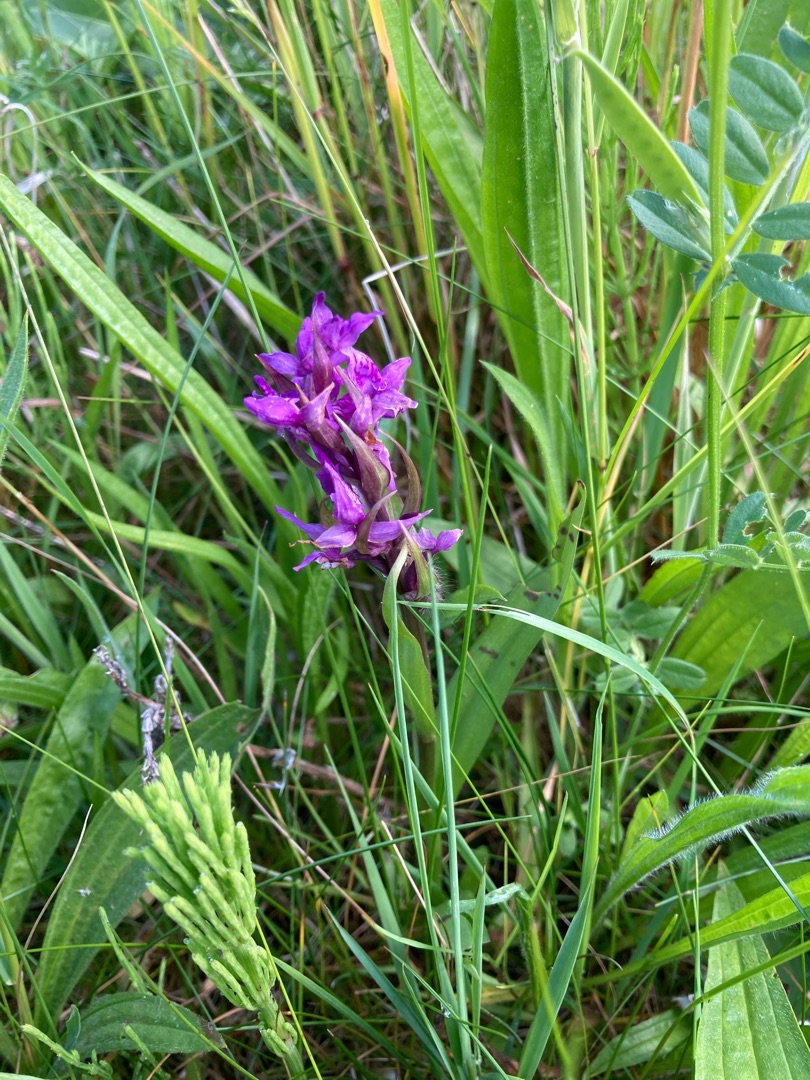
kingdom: Plantae
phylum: Tracheophyta
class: Liliopsida
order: Asparagales
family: Orchidaceae
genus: Dactylorhiza
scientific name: Dactylorhiza majalis
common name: Maj-gøgeurt
